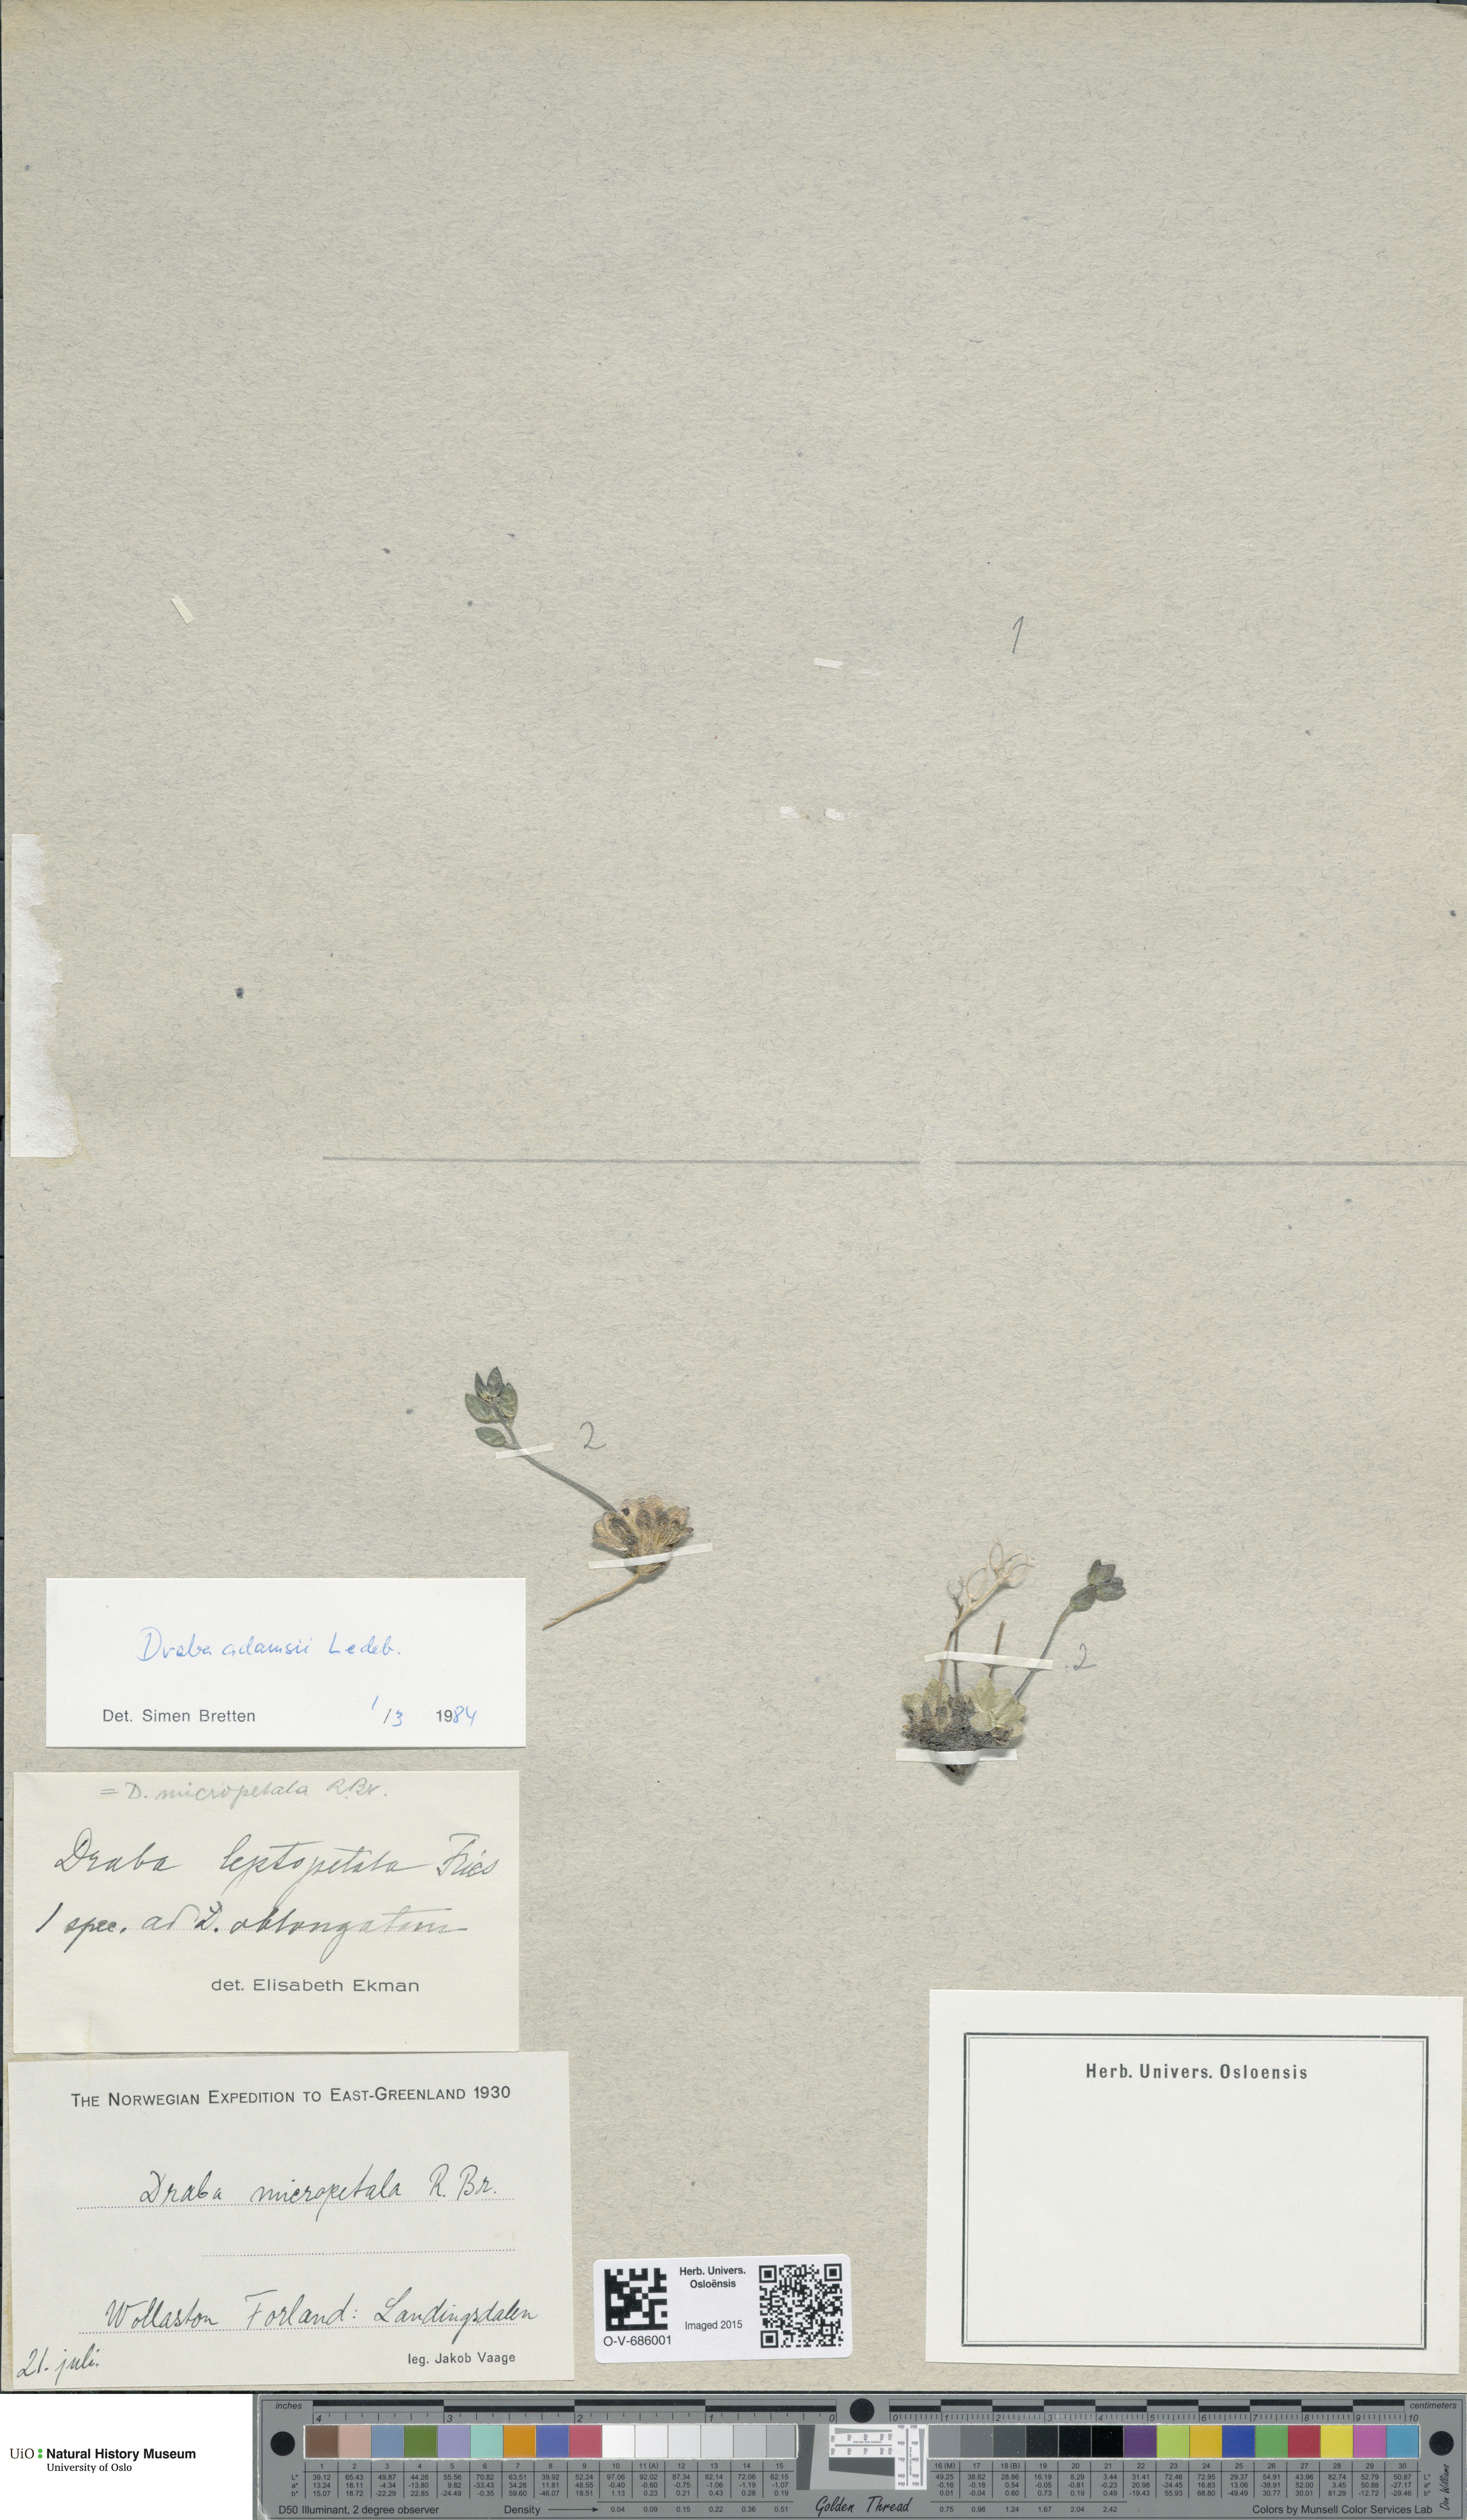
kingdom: Plantae
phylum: Tracheophyta
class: Magnoliopsida
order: Brassicales
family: Brassicaceae
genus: Draba
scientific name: Draba pauciflora
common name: Few-flowered draba
